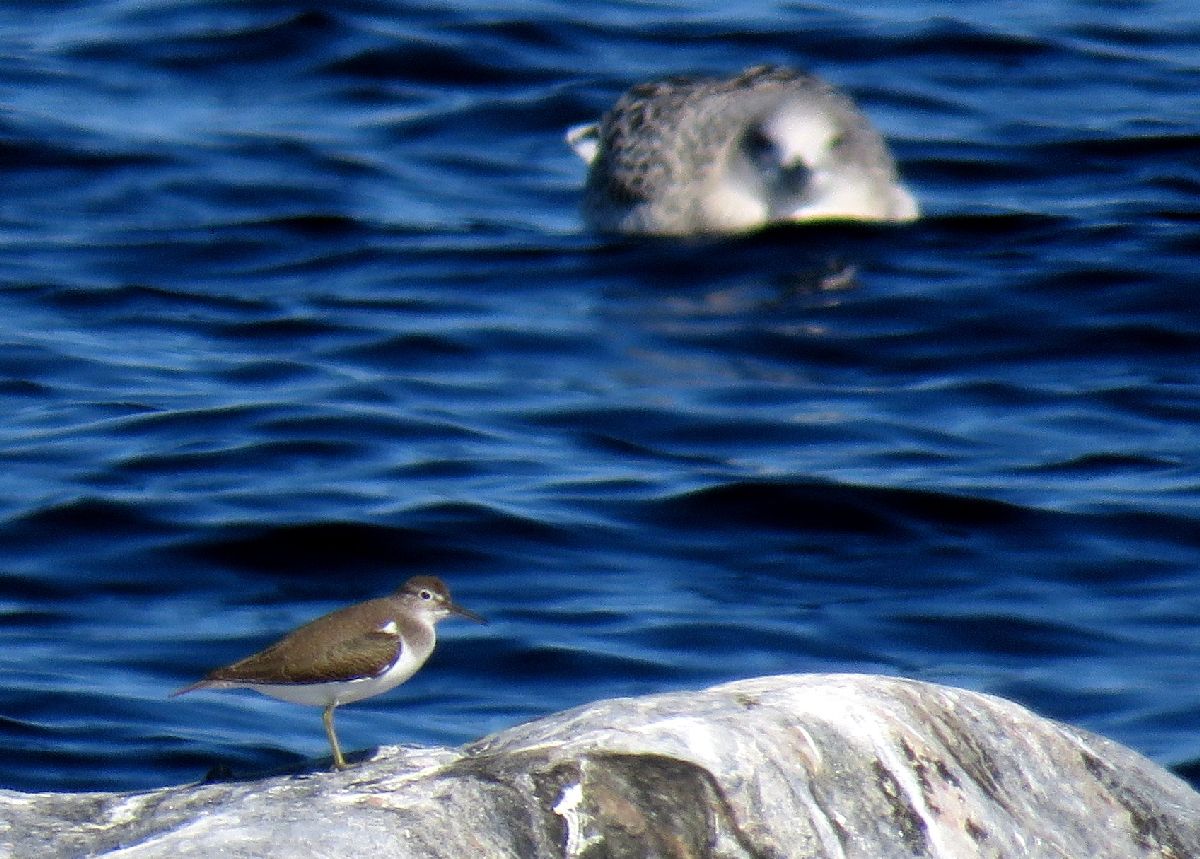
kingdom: Animalia
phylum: Chordata
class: Aves
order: Charadriiformes
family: Scolopacidae
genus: Actitis
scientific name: Actitis hypoleucos
